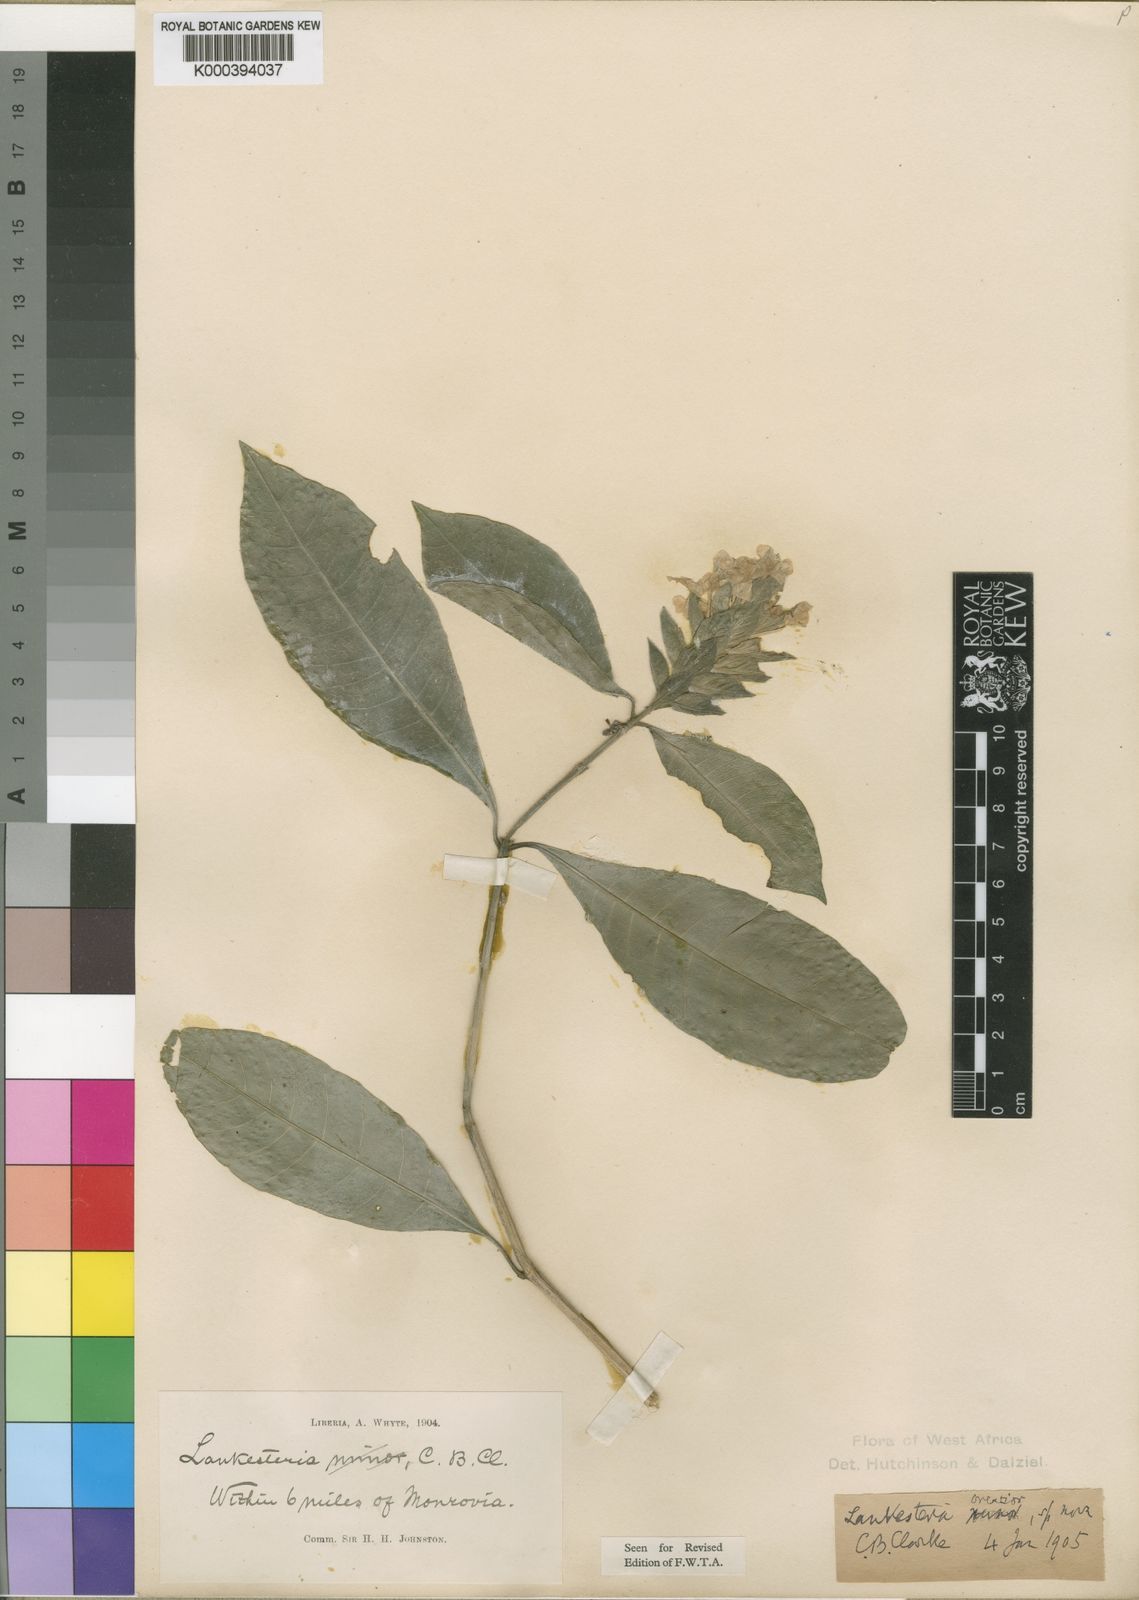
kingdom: Plantae
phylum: Tracheophyta
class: Magnoliopsida
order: Lamiales
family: Acanthaceae
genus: Lankesteria
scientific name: Lankesteria brevior
